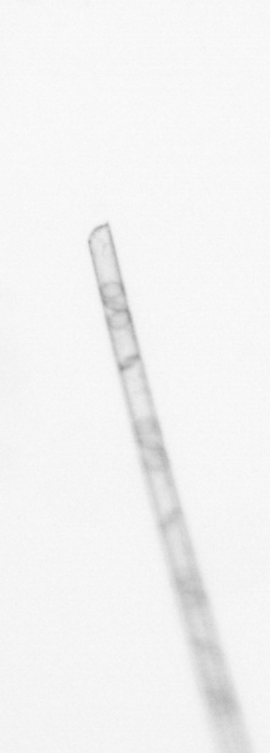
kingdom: Chromista
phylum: Ochrophyta
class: Bacillariophyceae
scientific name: Bacillariophyceae
